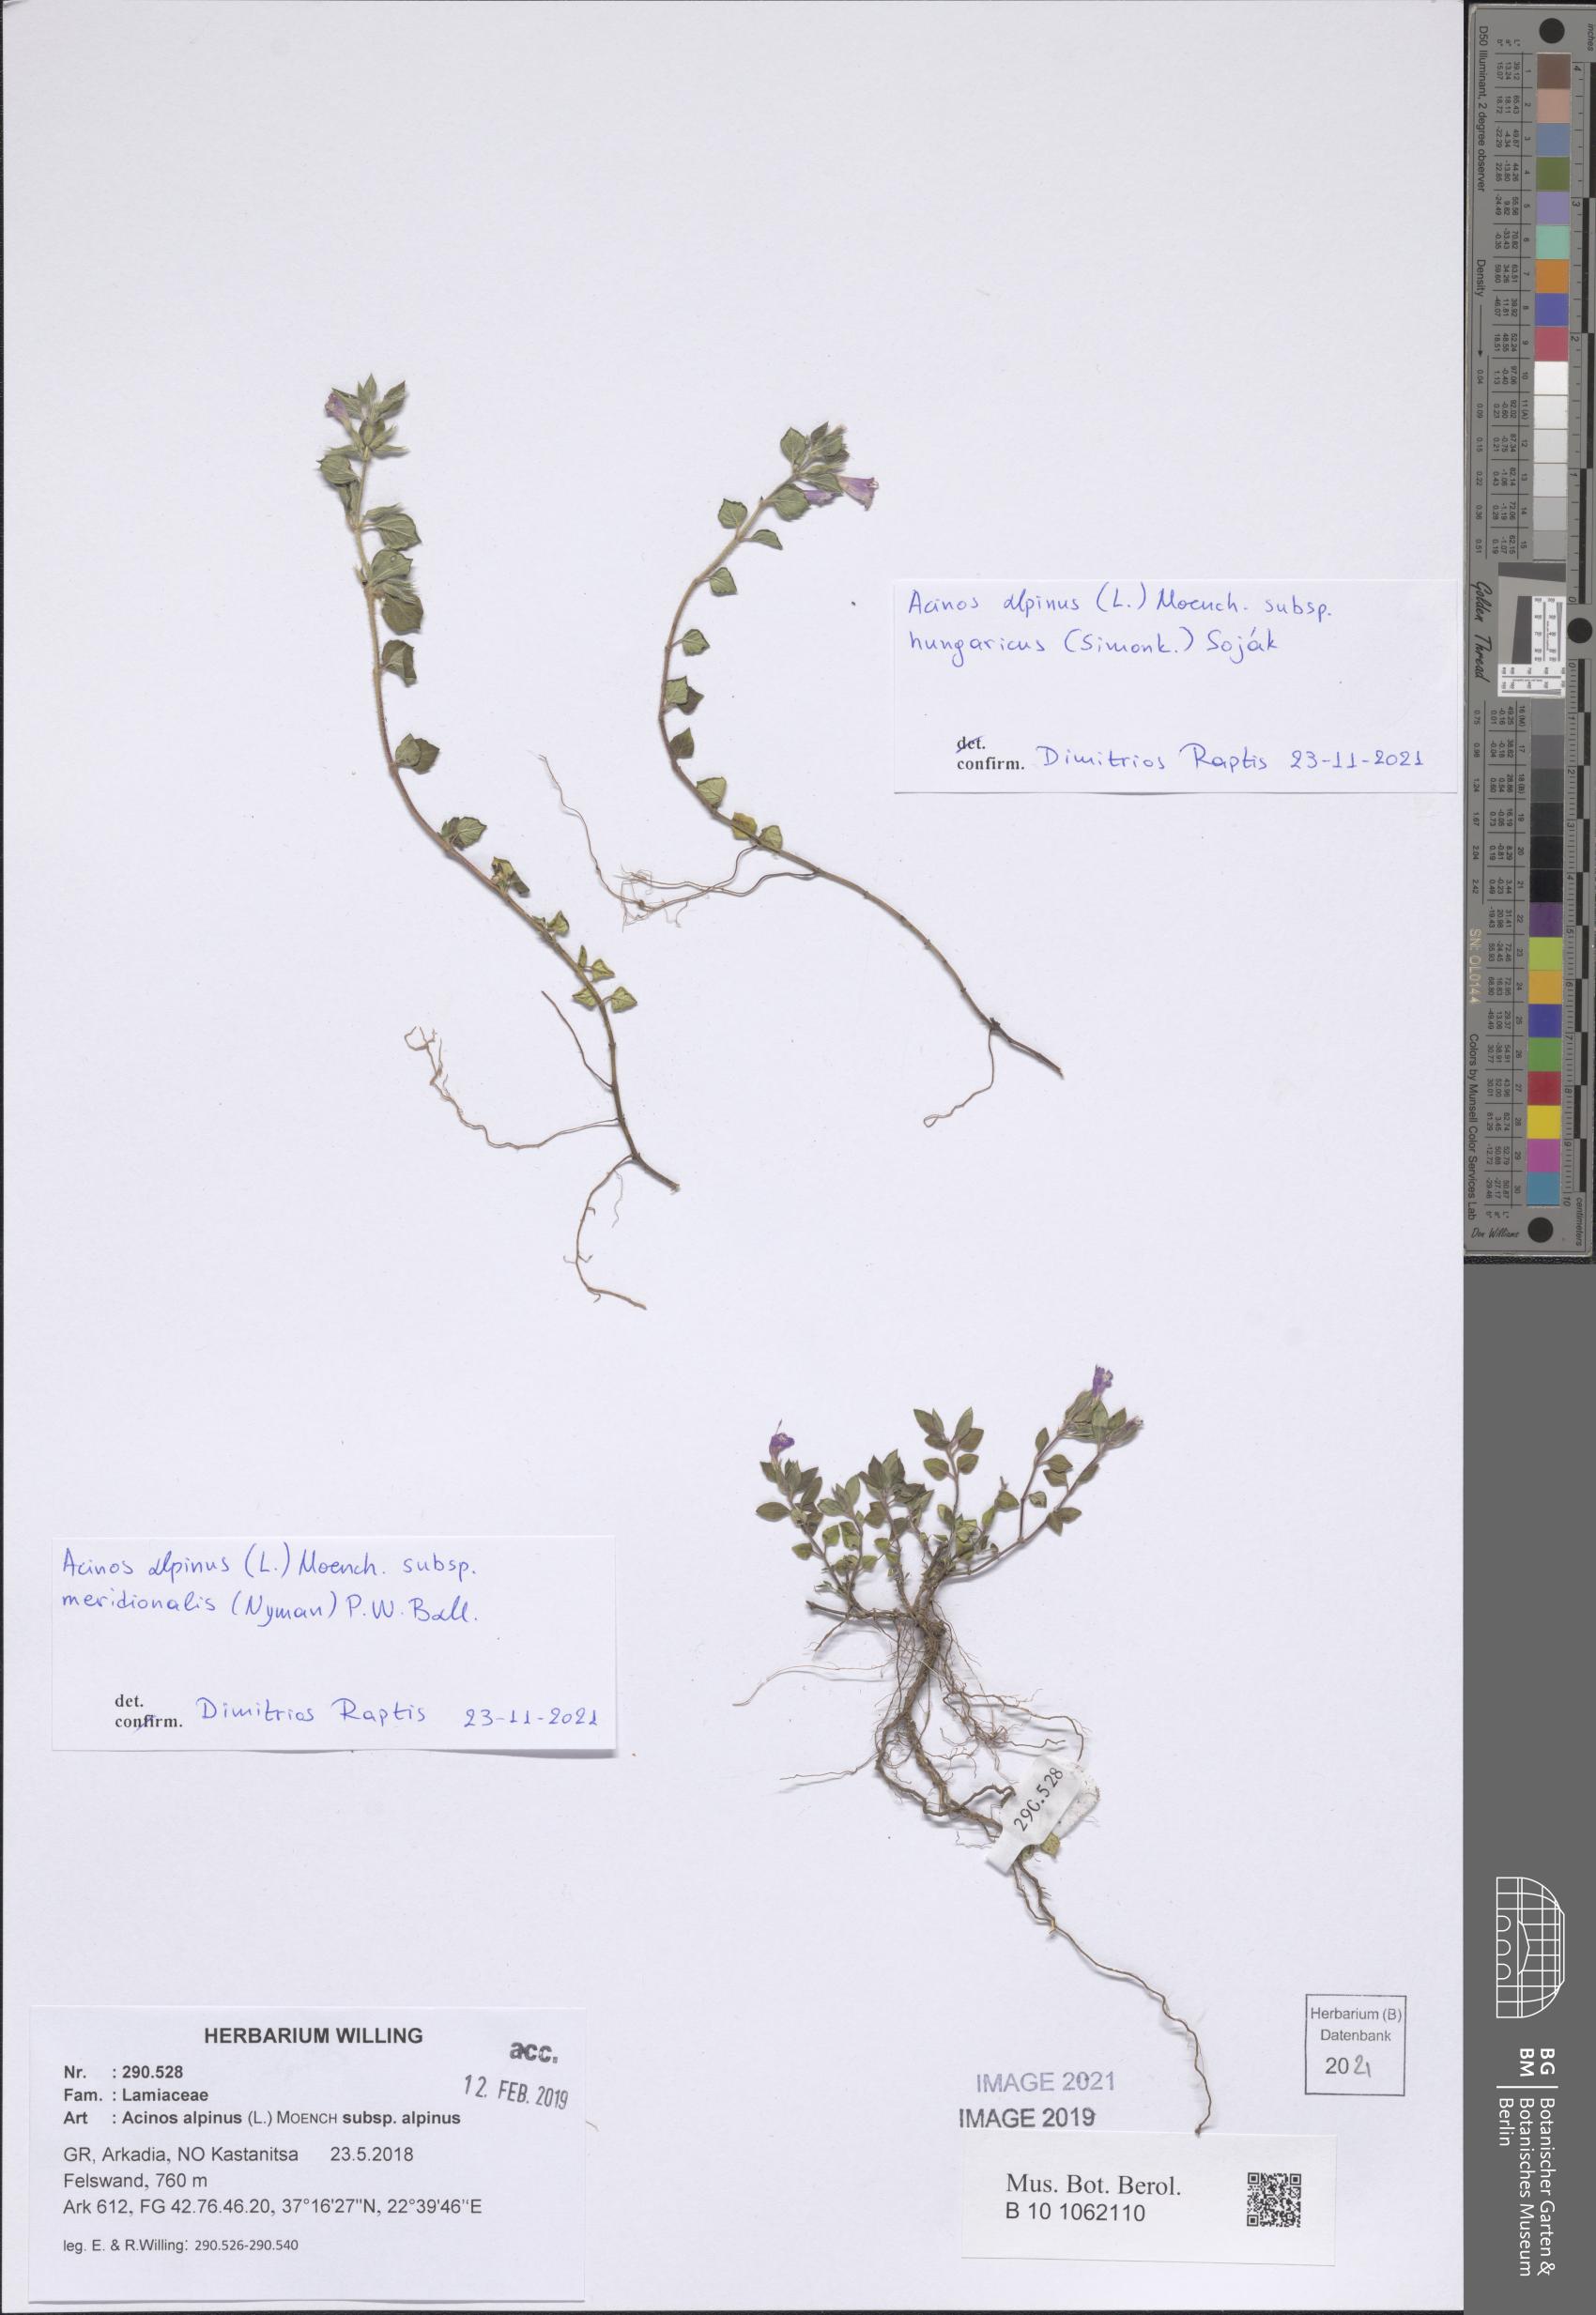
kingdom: Plantae
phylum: Tracheophyta
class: Magnoliopsida
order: Lamiales
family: Lamiaceae
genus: Clinopodium
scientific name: Clinopodium alpinum
